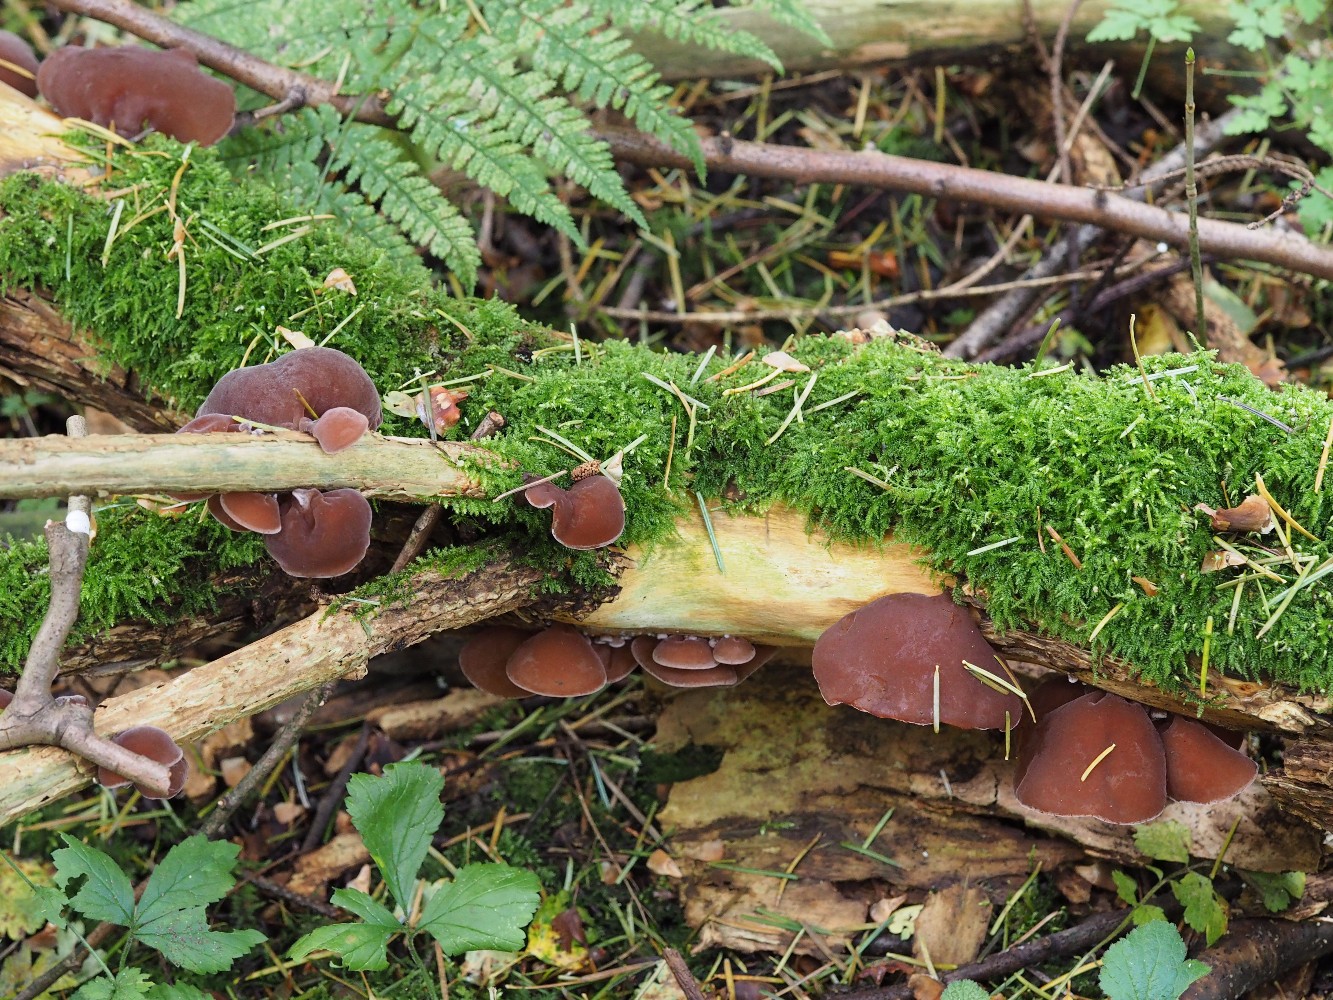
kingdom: Fungi
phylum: Basidiomycota
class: Agaricomycetes
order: Auriculariales
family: Auriculariaceae
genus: Auricularia
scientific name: Auricularia auricula-judae
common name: almindelig judasøre
